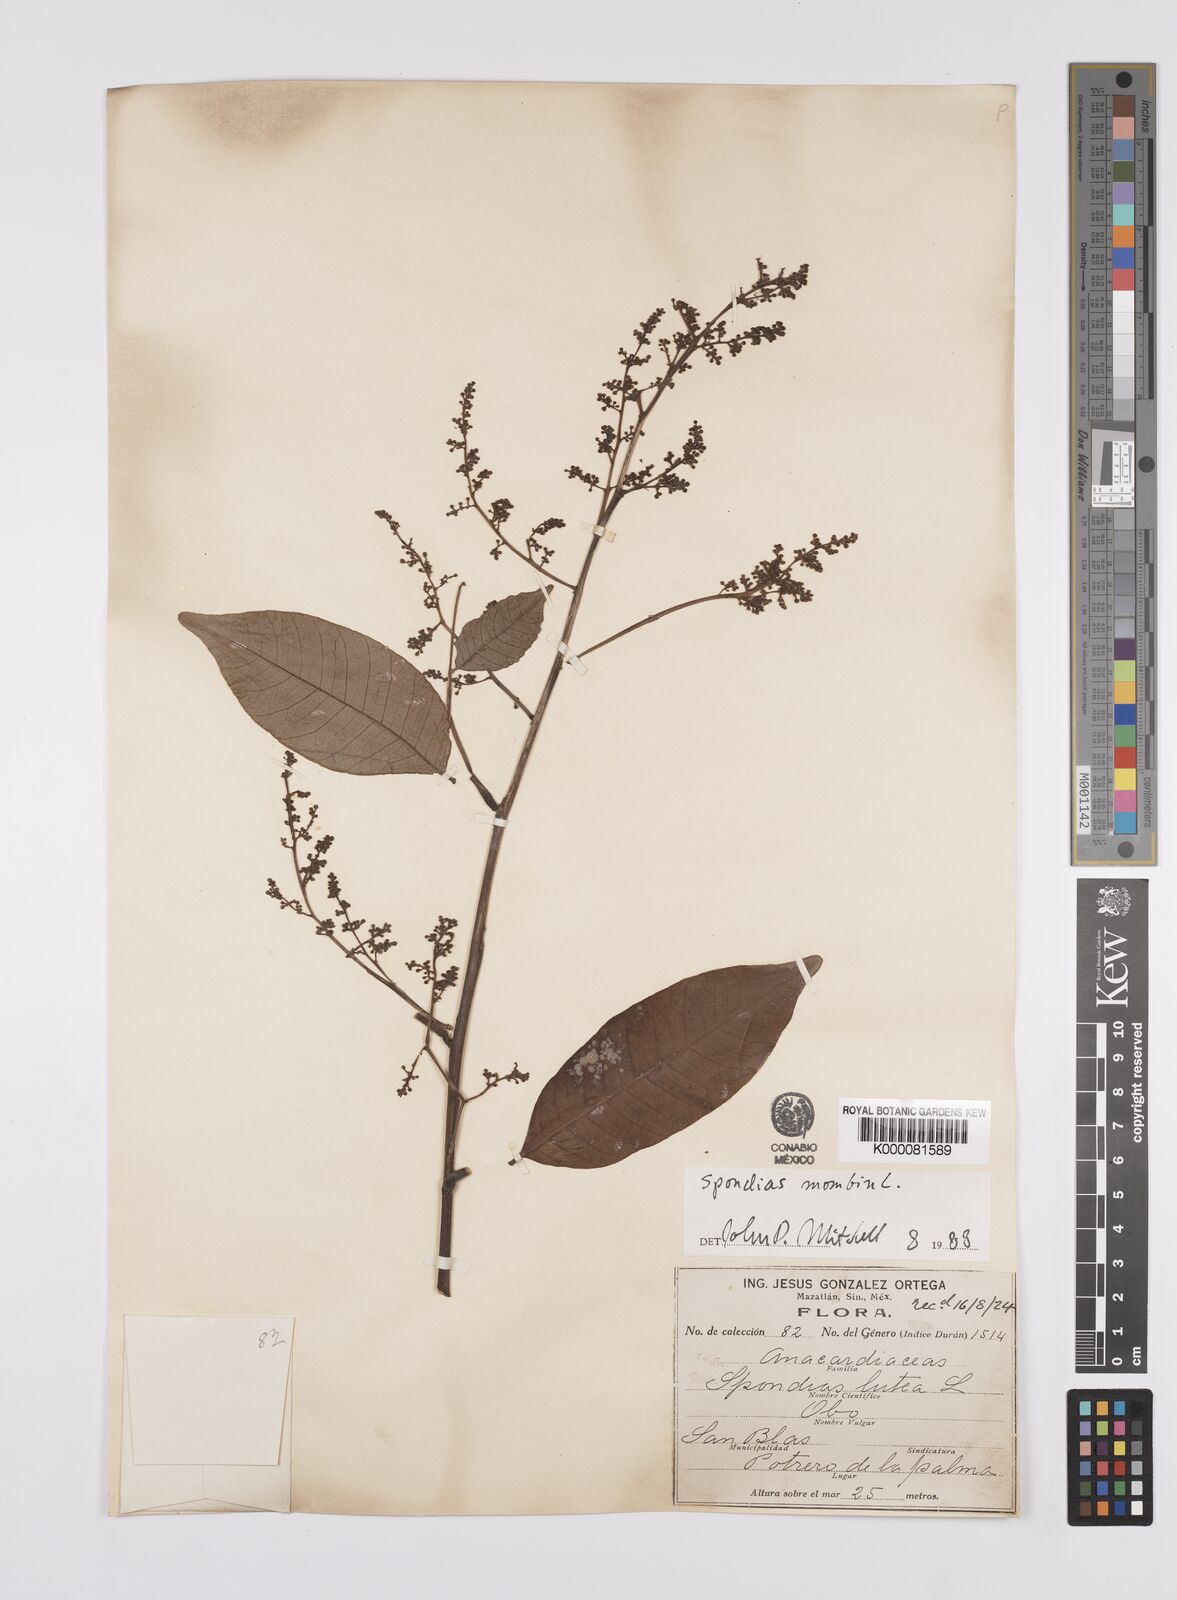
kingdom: Plantae
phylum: Tracheophyta
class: Magnoliopsida
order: Sapindales
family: Anacardiaceae
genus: Spondias
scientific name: Spondias mombin
